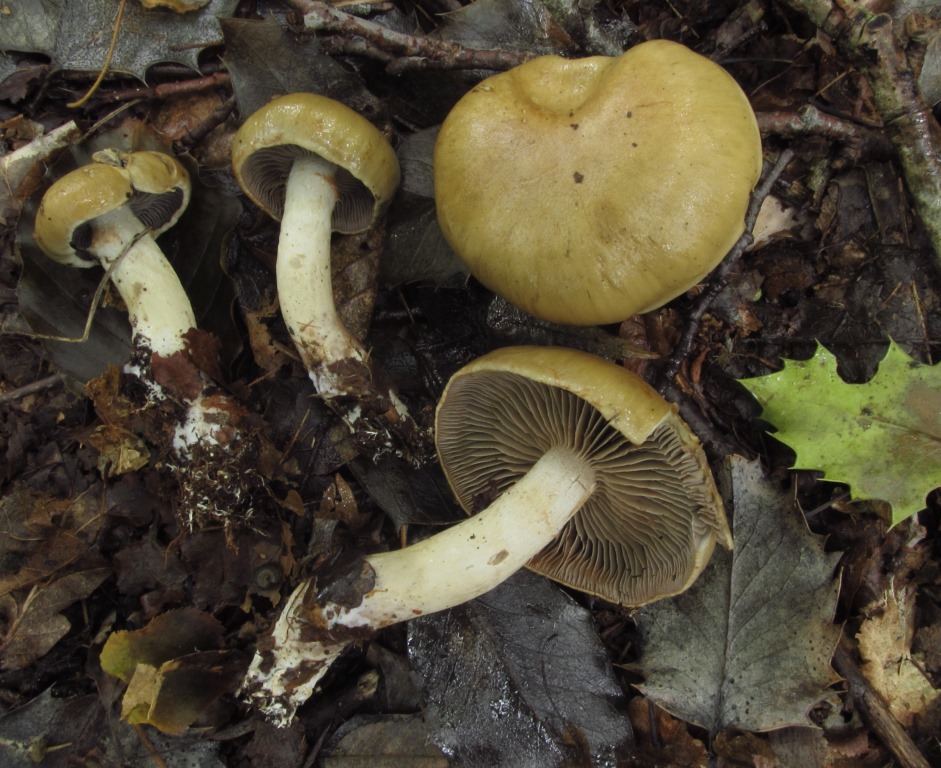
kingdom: Fungi
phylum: Basidiomycota
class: Agaricomycetes
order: Agaricales
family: Cortinariaceae
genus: Cortinarius
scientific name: Cortinarius subtortus
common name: olivengul slørhat
